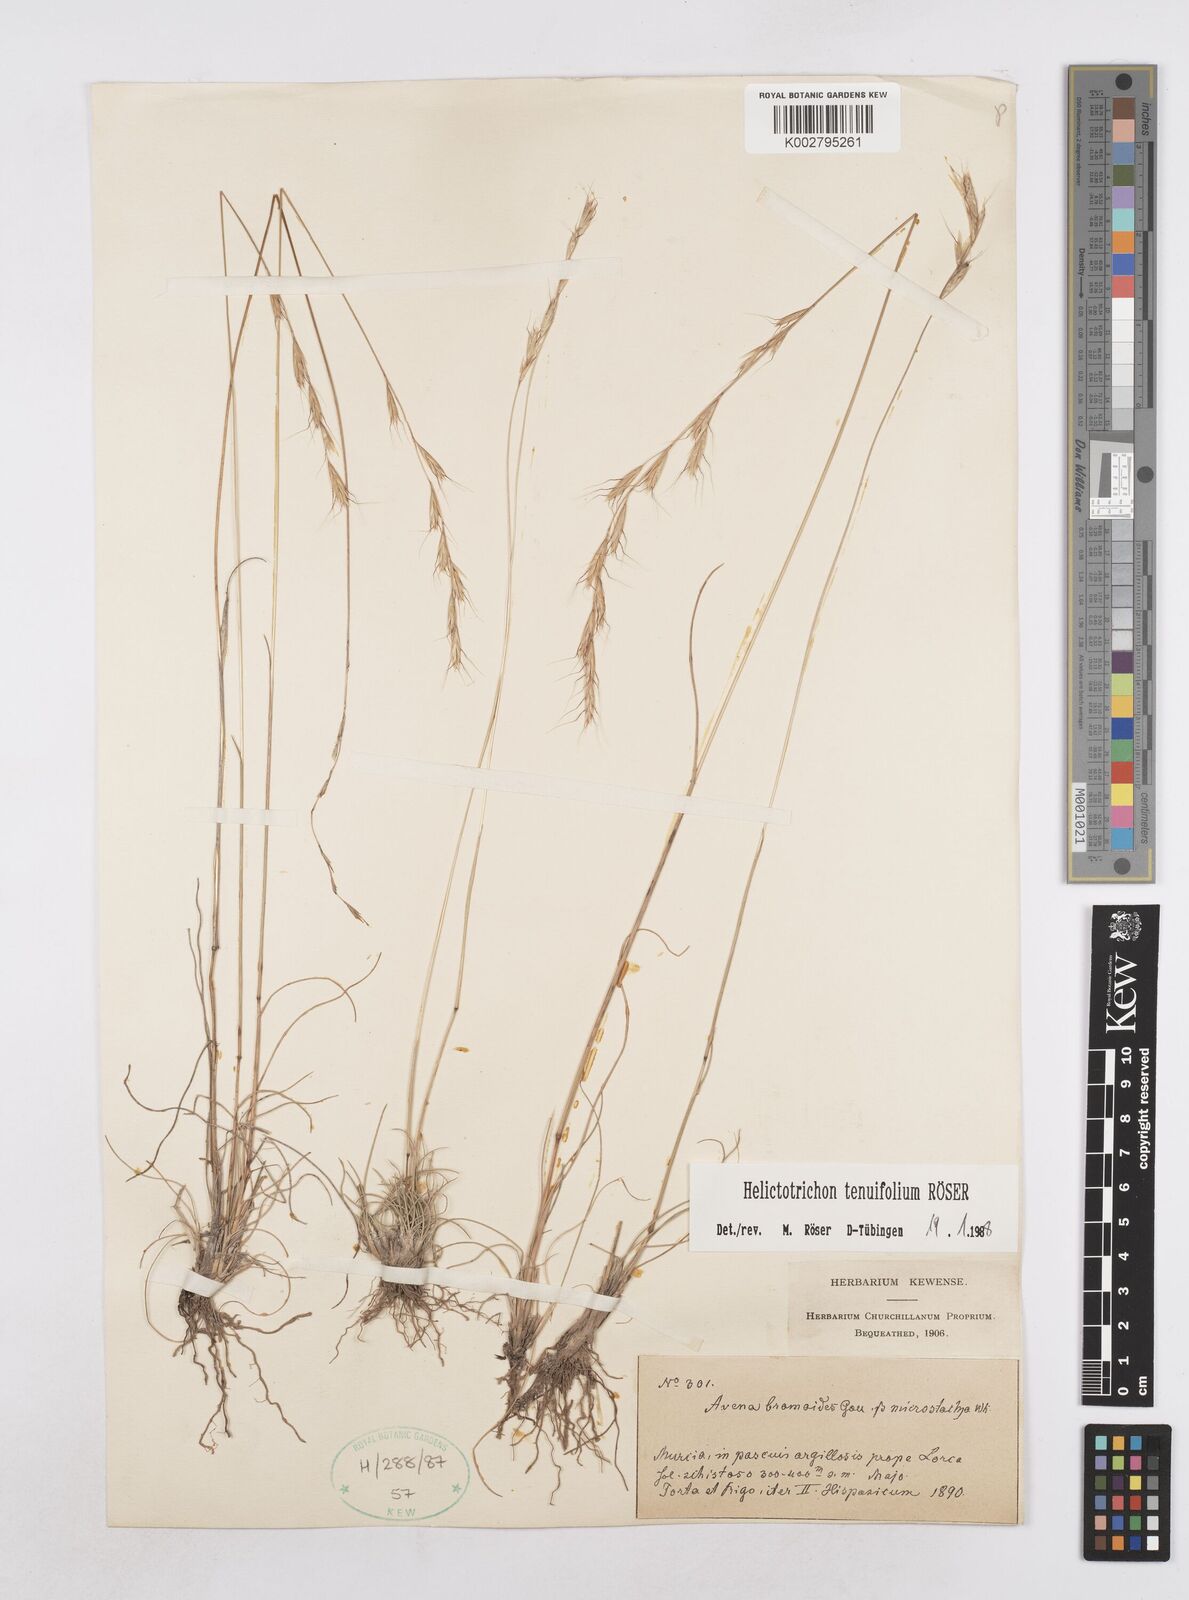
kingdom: Plantae
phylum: Tracheophyta
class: Liliopsida
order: Poales
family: Poaceae
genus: Helictochloa
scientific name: Helictochloa murcica
